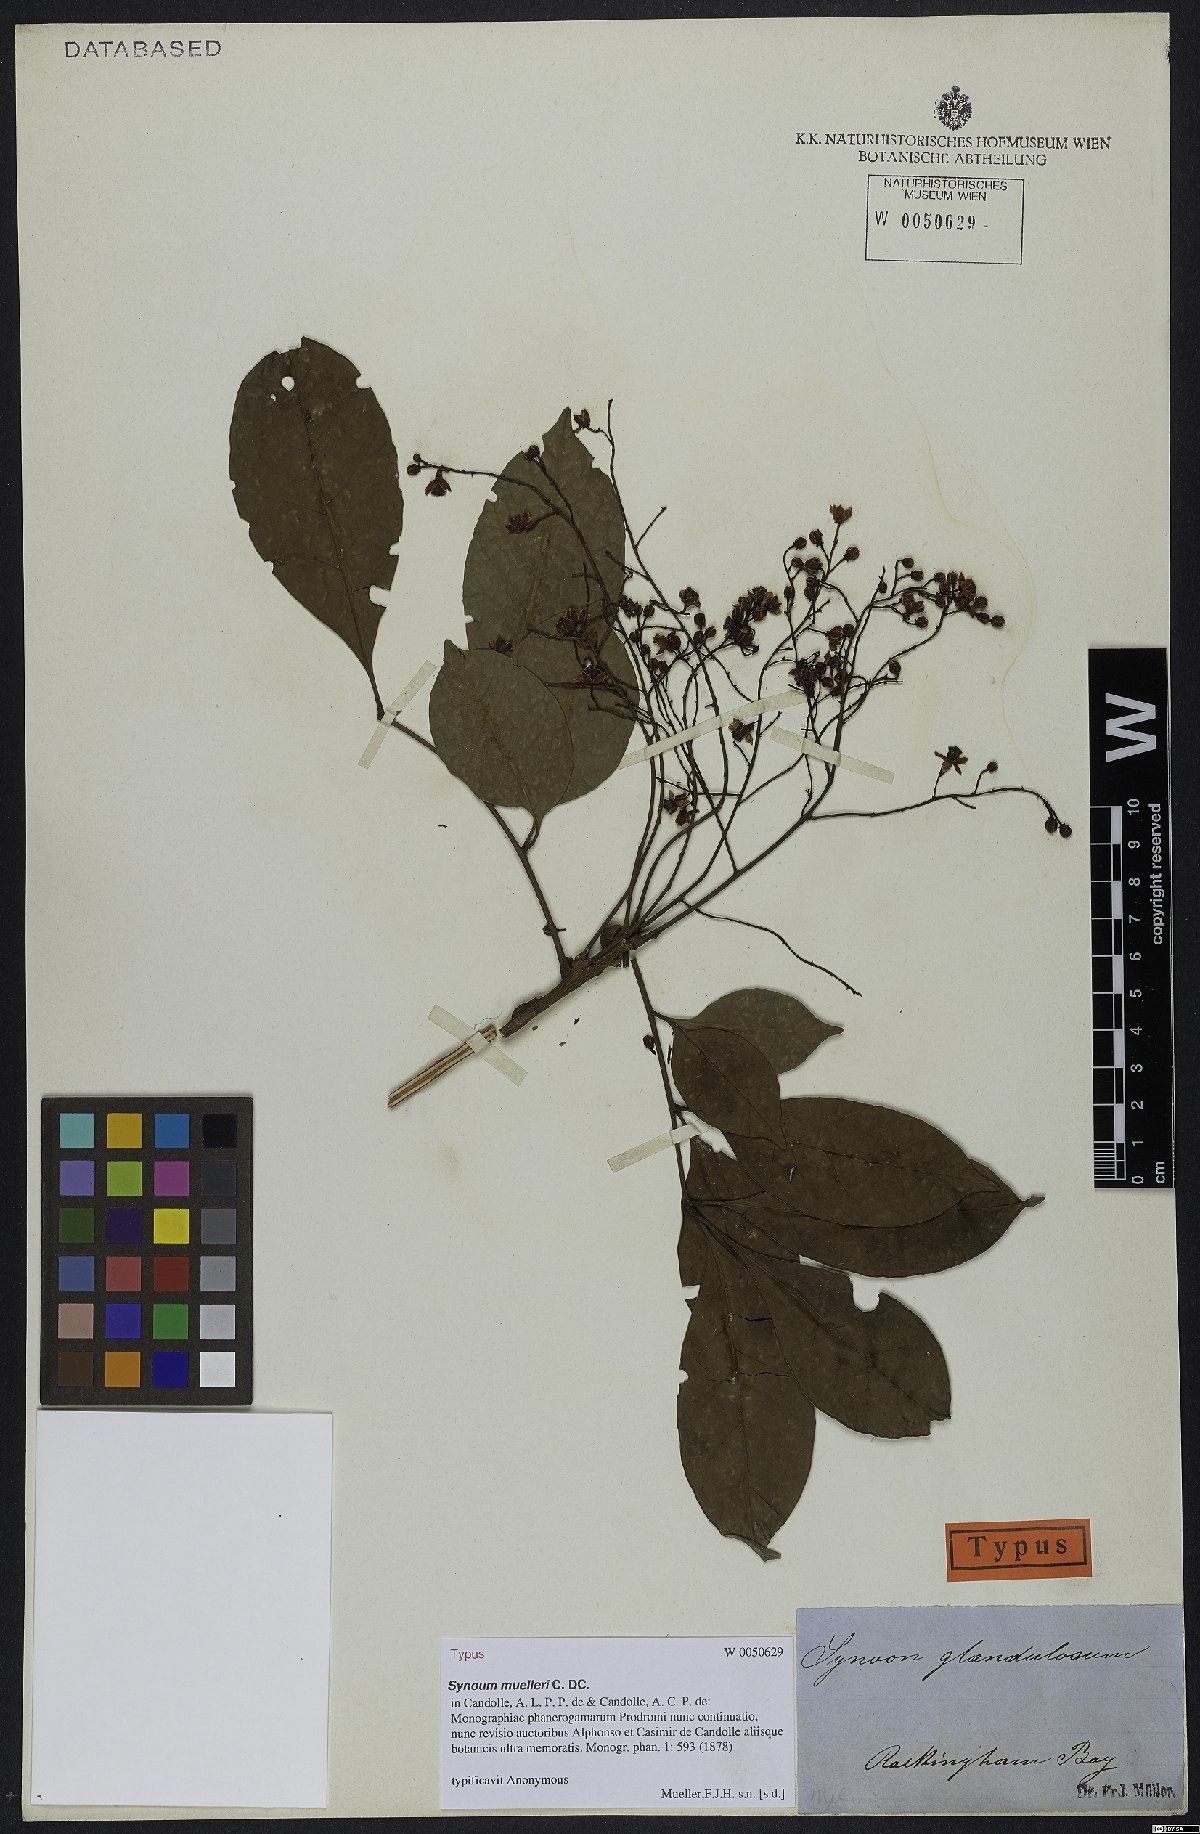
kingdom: Plantae
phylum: Tracheophyta
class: Magnoliopsida
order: Sapindales
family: Meliaceae
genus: Synoum
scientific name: Synoum glandulosum
